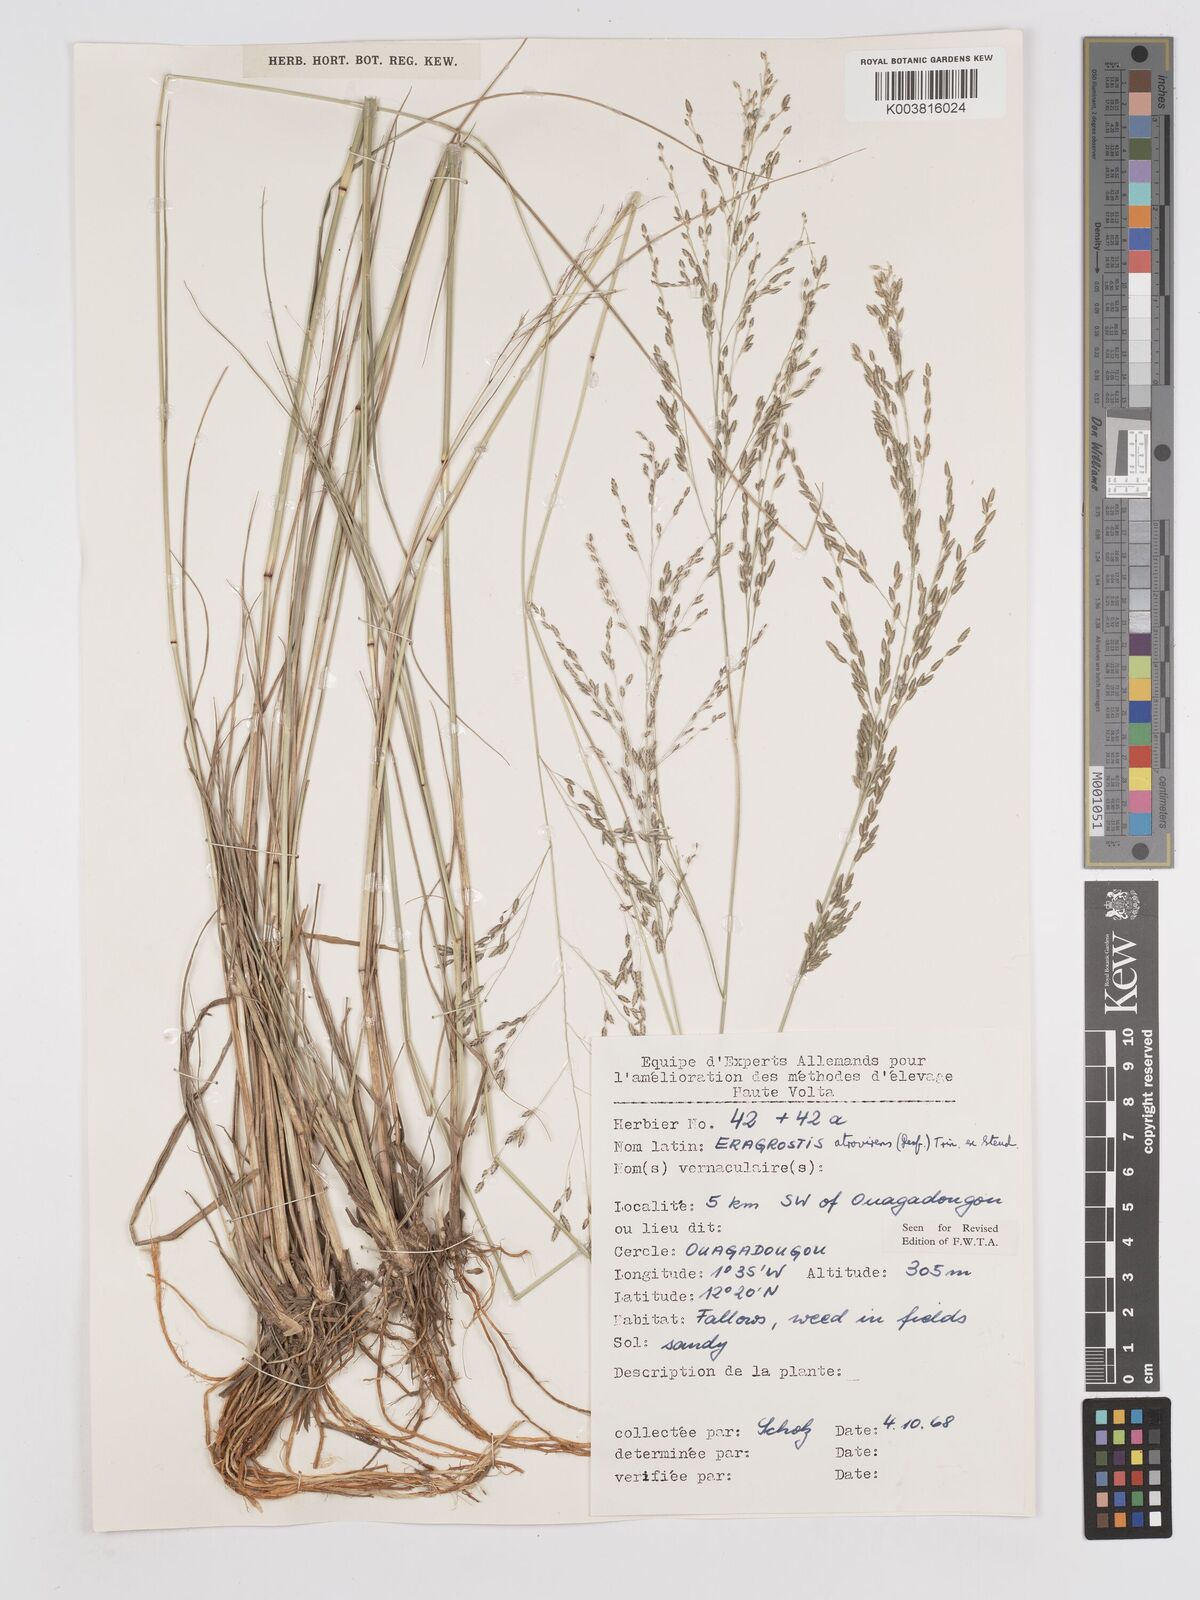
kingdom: Plantae
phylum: Tracheophyta
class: Liliopsida
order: Poales
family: Poaceae
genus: Eragrostis
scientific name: Eragrostis atrovirens
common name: Thalia lovegrass
